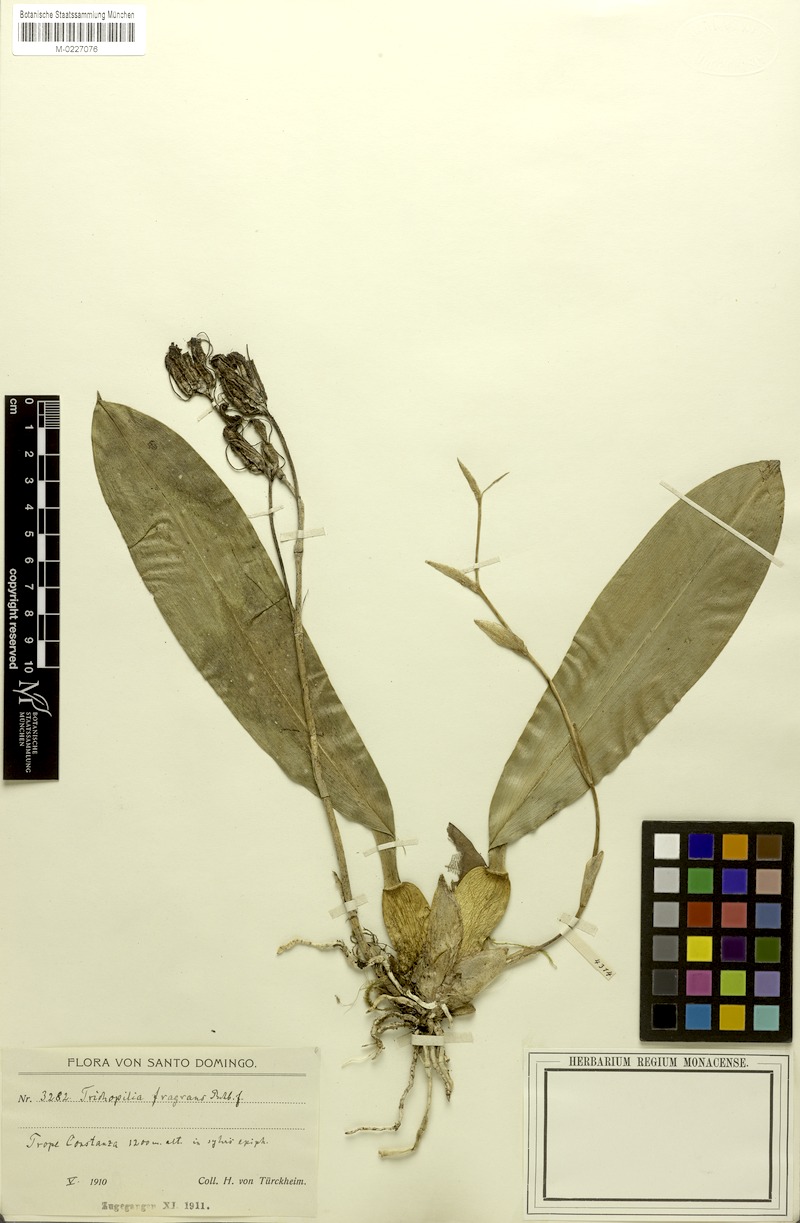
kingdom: Plantae
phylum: Tracheophyta
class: Liliopsida
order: Asparagales
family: Orchidaceae
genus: Trichopilia
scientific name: Trichopilia fragrans
